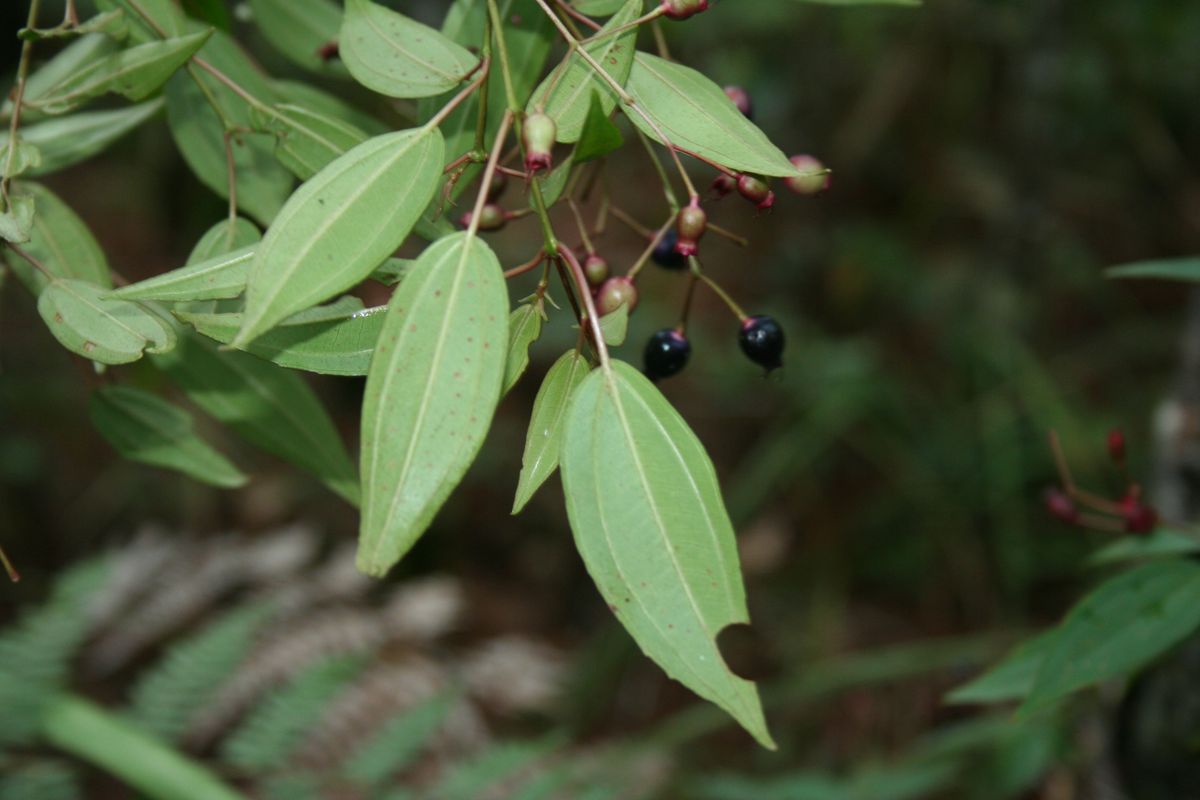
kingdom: Plantae
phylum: Tracheophyta
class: Magnoliopsida
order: Myrtales
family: Melastomataceae
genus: Miconia
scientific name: Miconia zemurrayana
